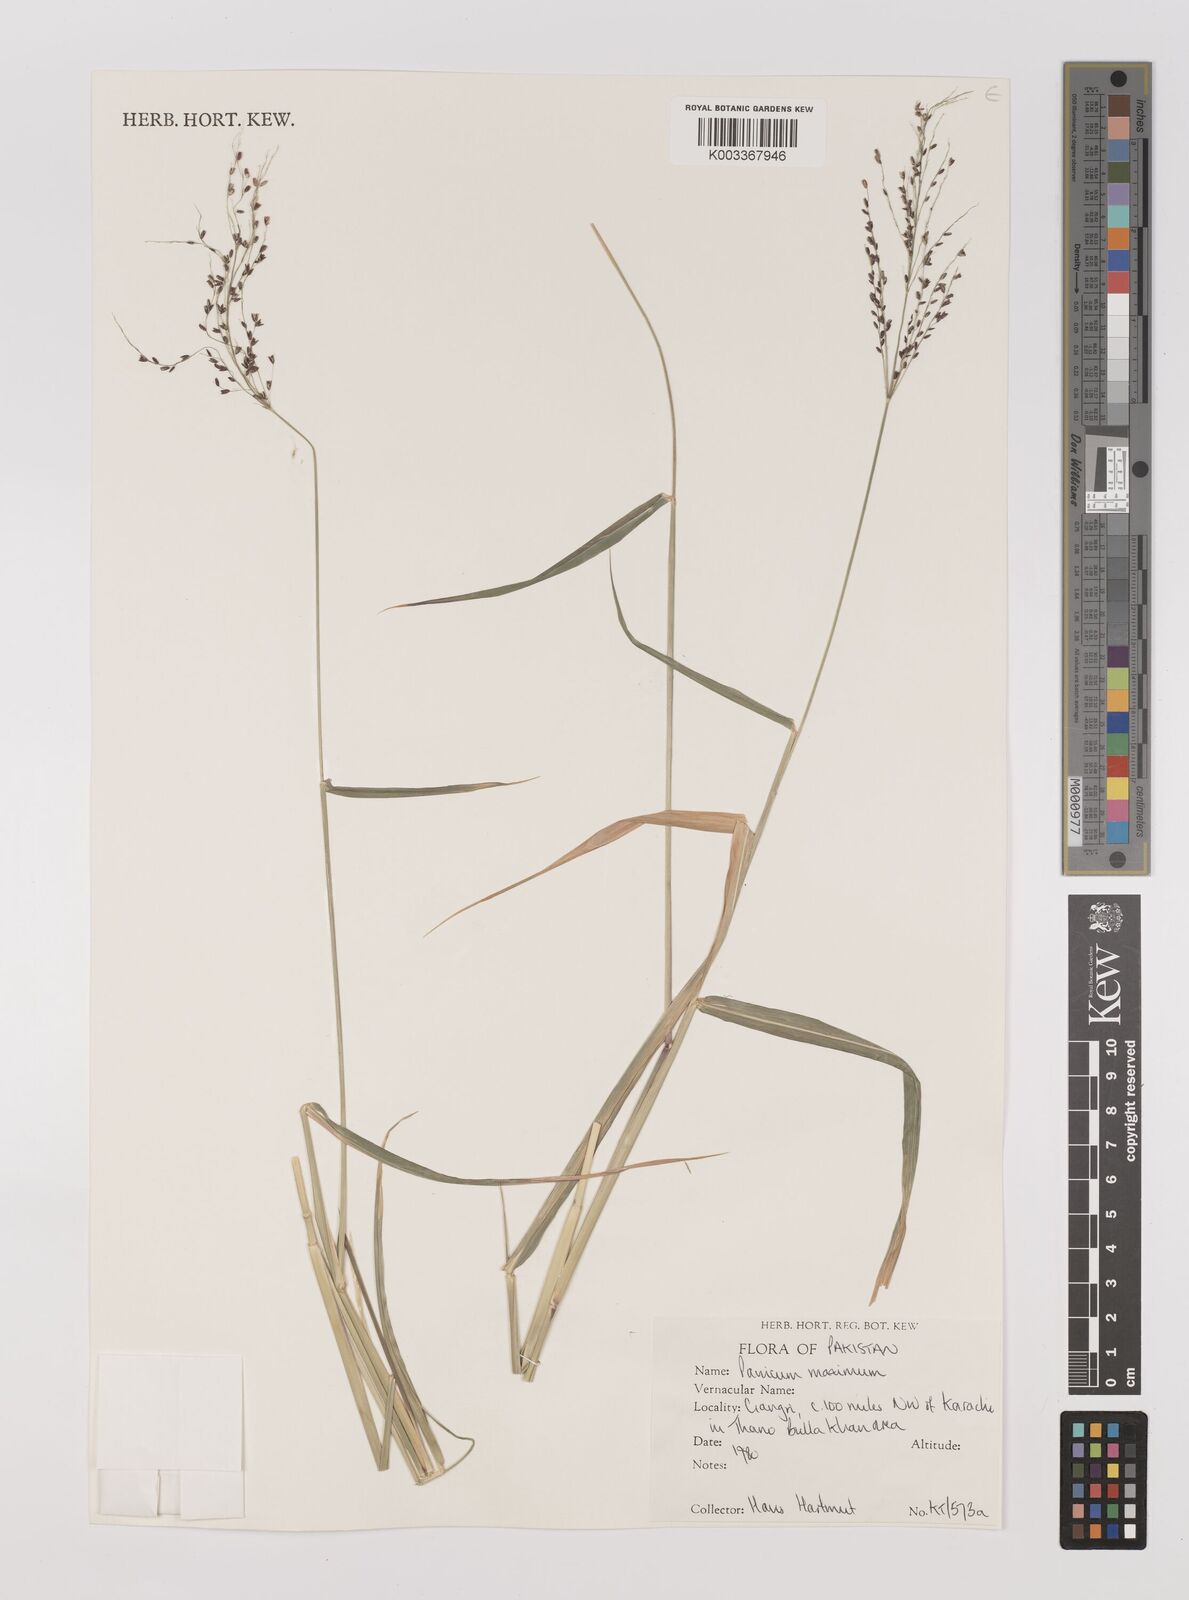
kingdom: Plantae
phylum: Tracheophyta
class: Liliopsida
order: Poales
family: Poaceae
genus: Megathyrsus
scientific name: Megathyrsus maximus
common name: Guineagrass
